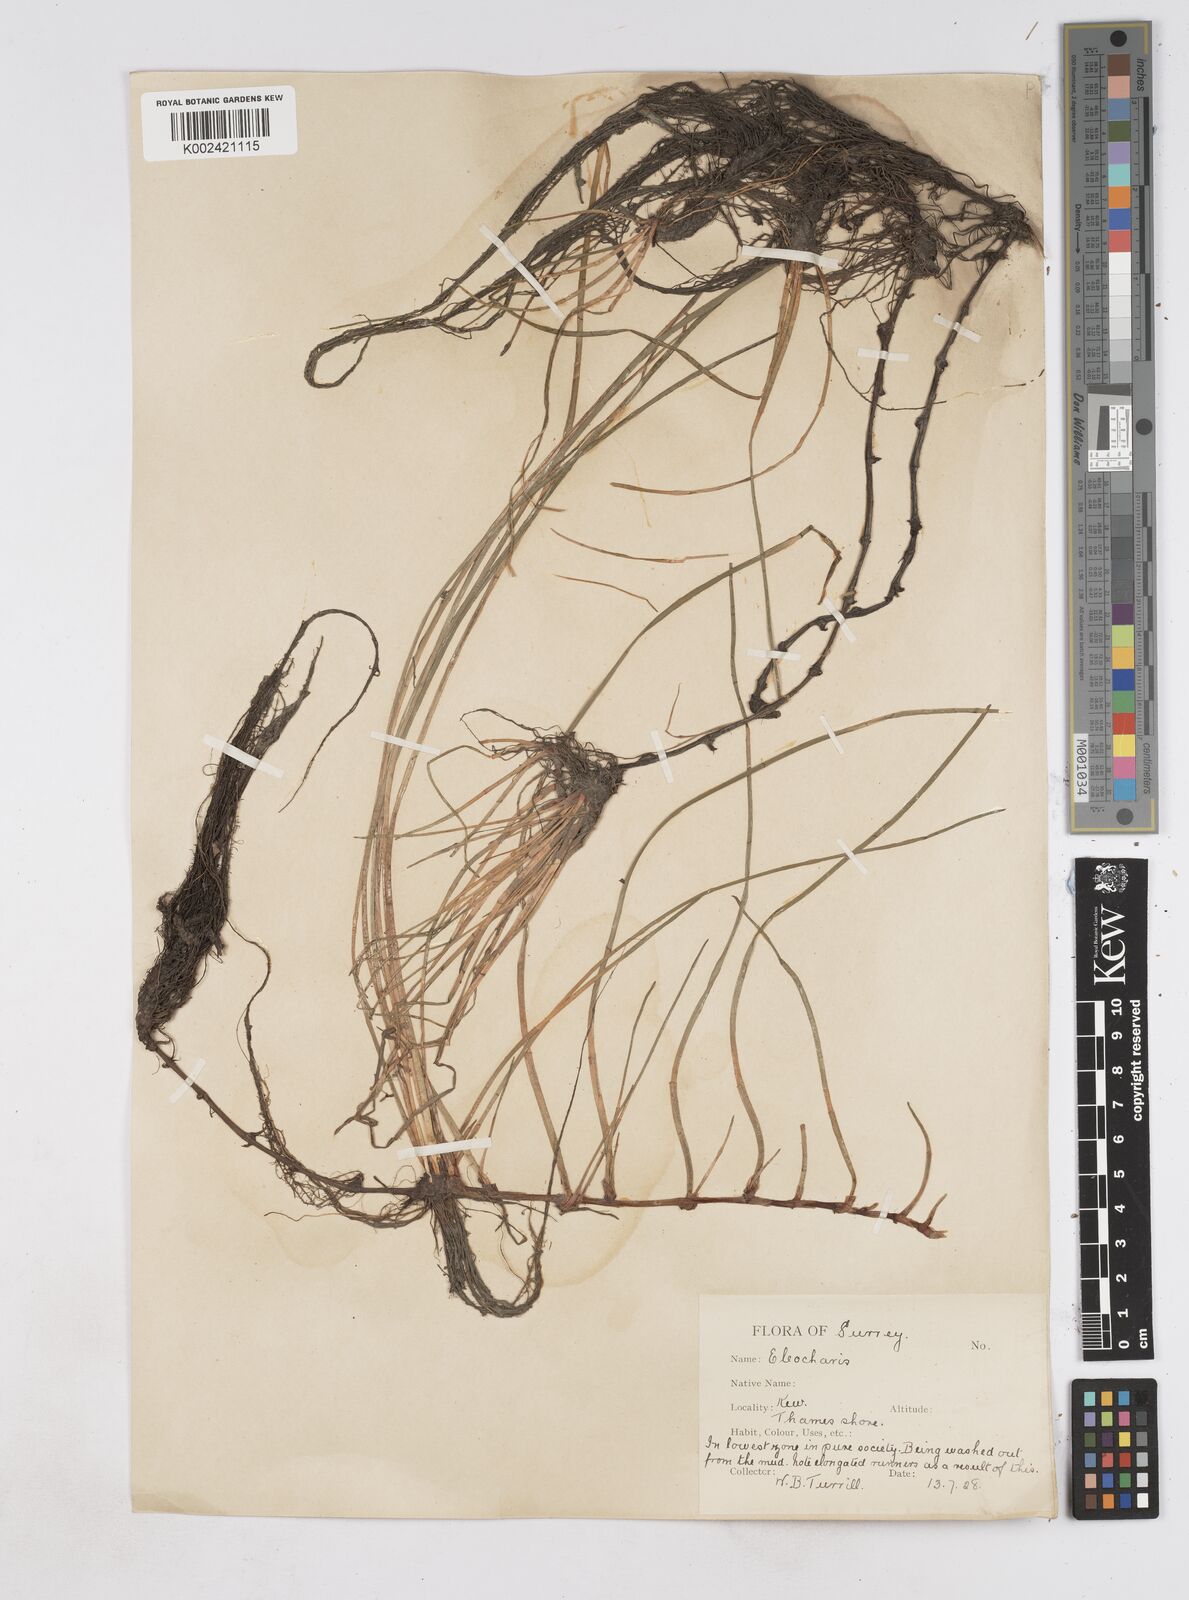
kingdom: Plantae
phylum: Tracheophyta
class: Liliopsida
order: Poales
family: Cyperaceae
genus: Eleocharis
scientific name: Eleocharis palustris
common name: Common spike-rush
